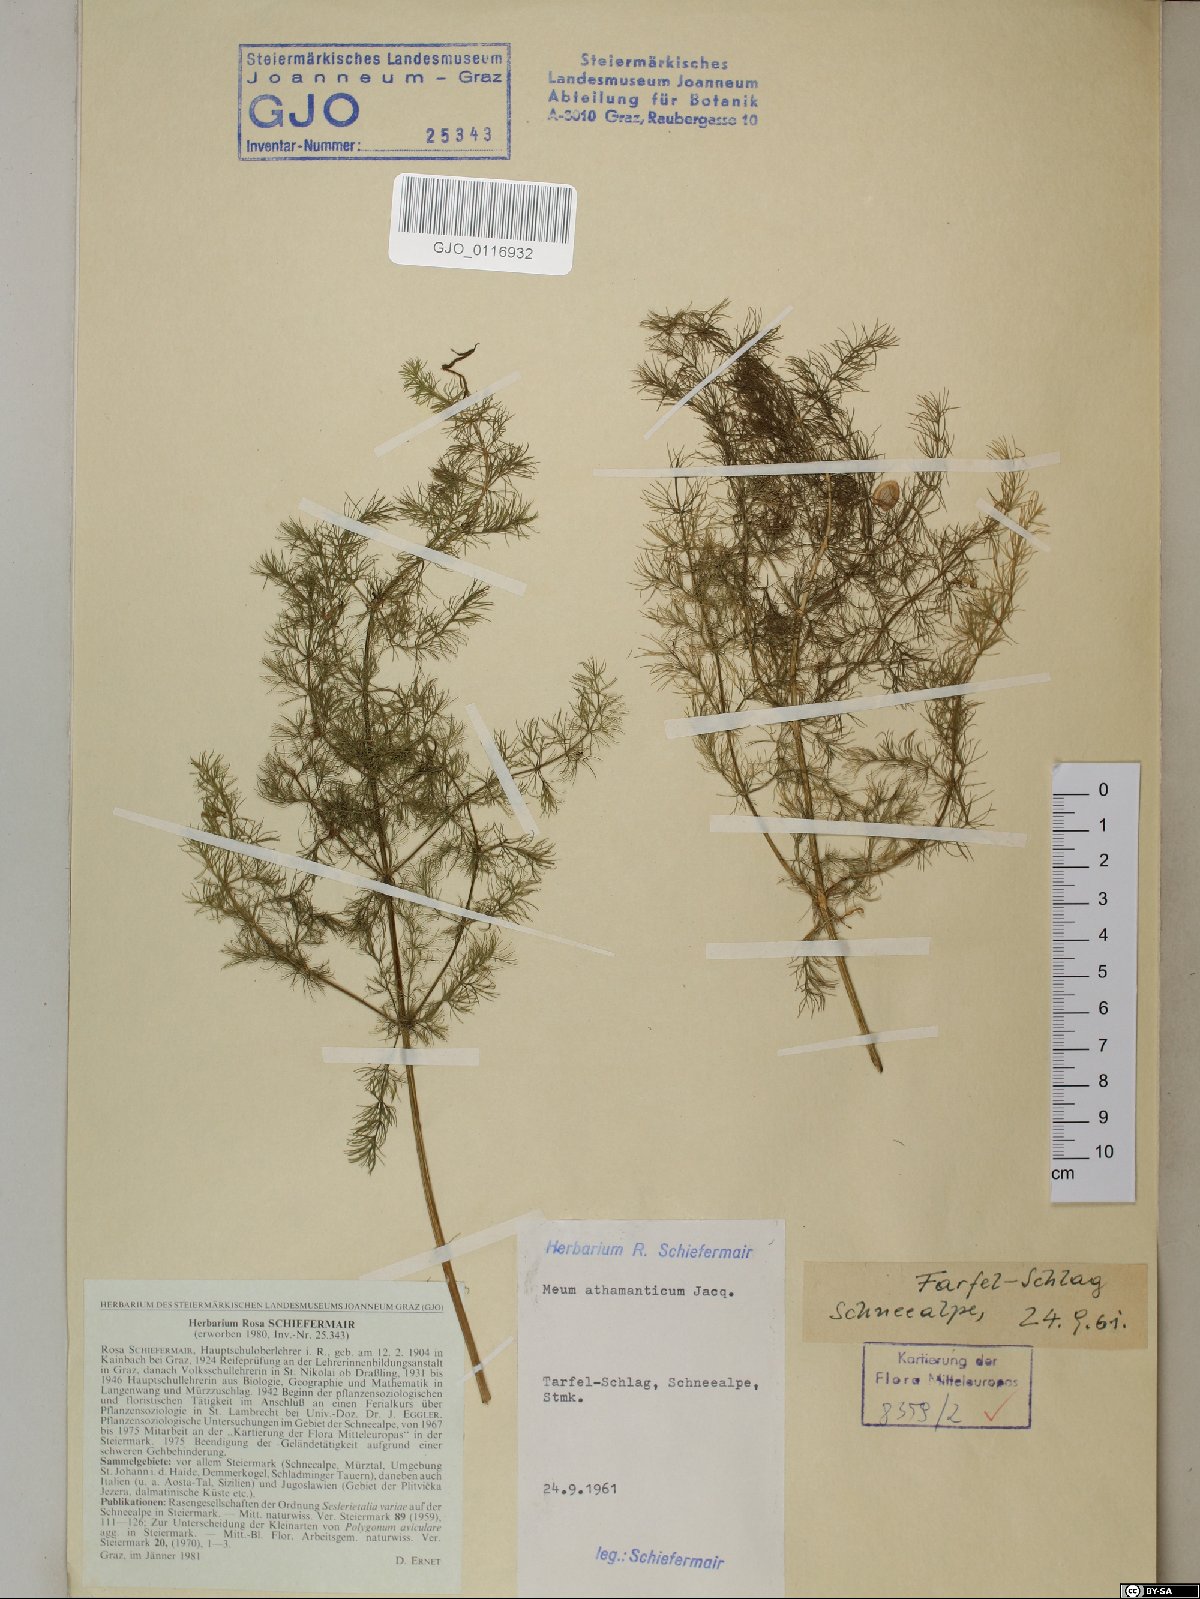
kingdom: Plantae
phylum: Tracheophyta
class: Magnoliopsida
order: Apiales
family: Apiaceae
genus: Meum
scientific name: Meum athamanticum
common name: Spignel
